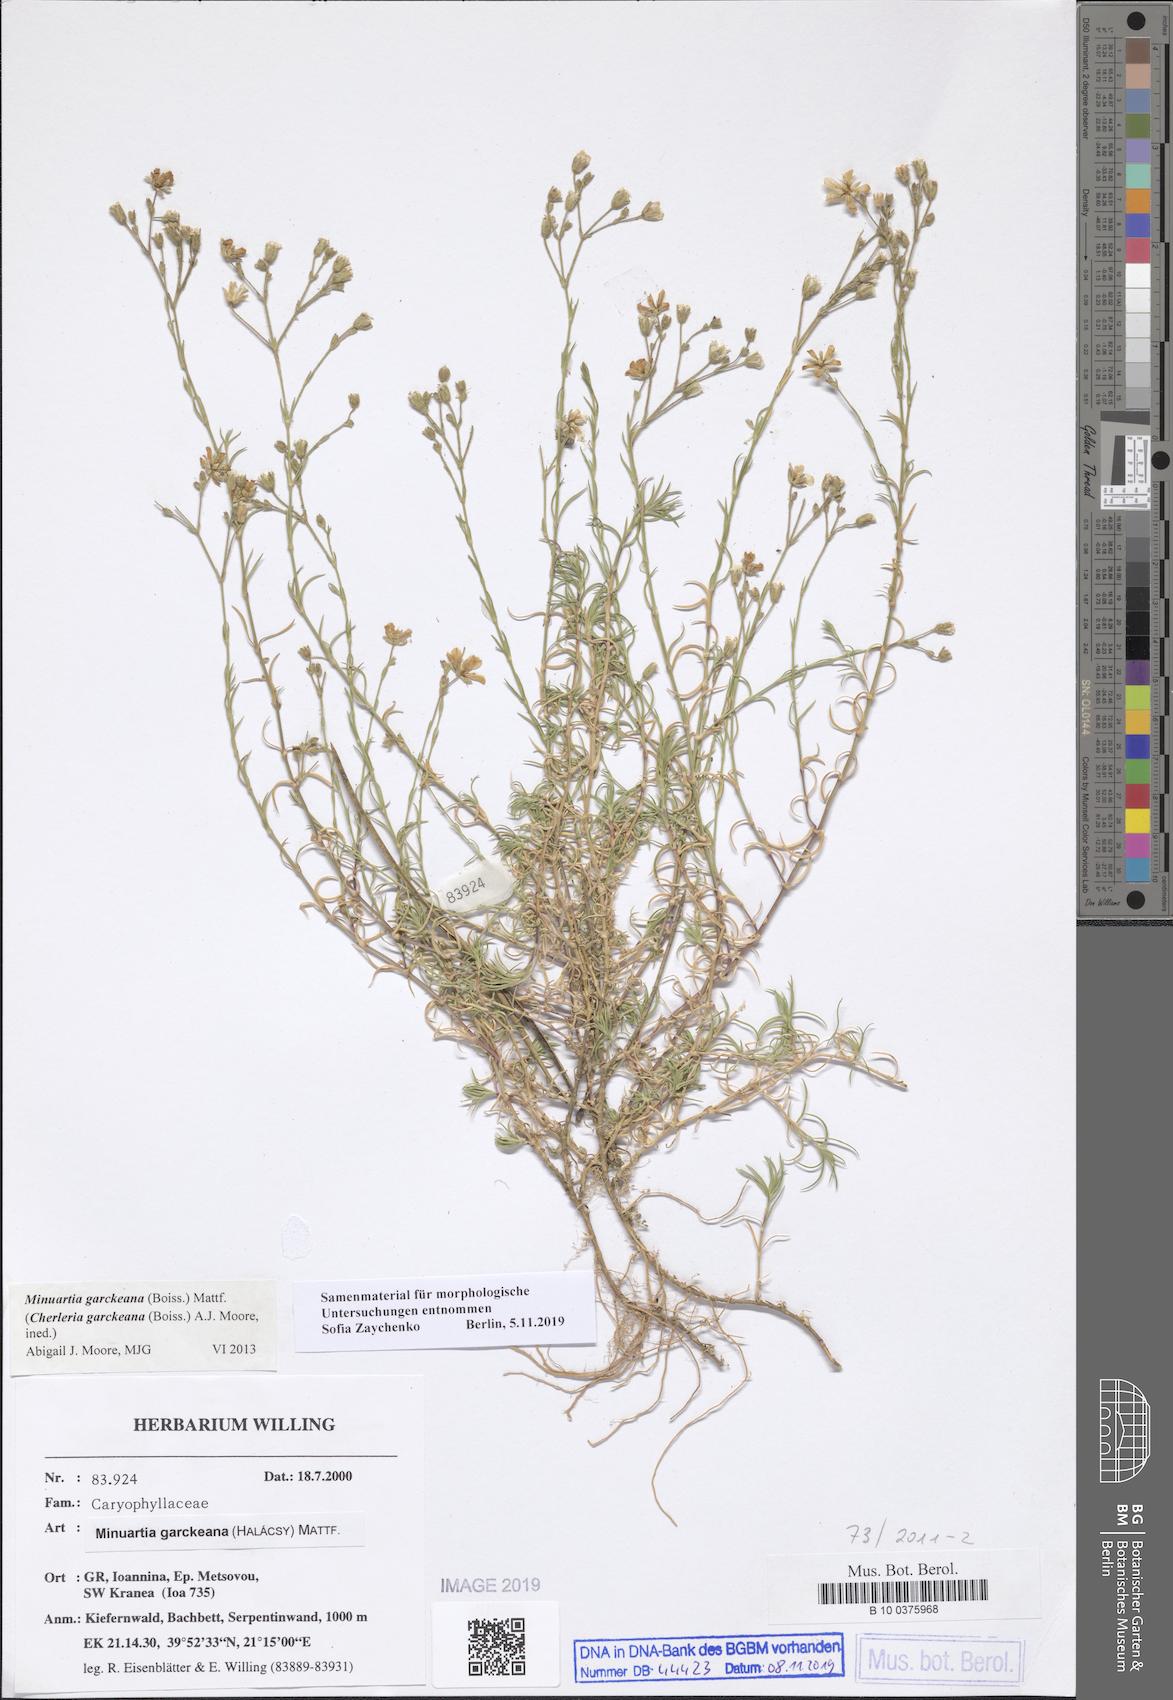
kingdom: Plantae
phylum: Tracheophyta
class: Magnoliopsida
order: Caryophyllales
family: Caryophyllaceae
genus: Cherleria
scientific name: Cherleria garckeana
